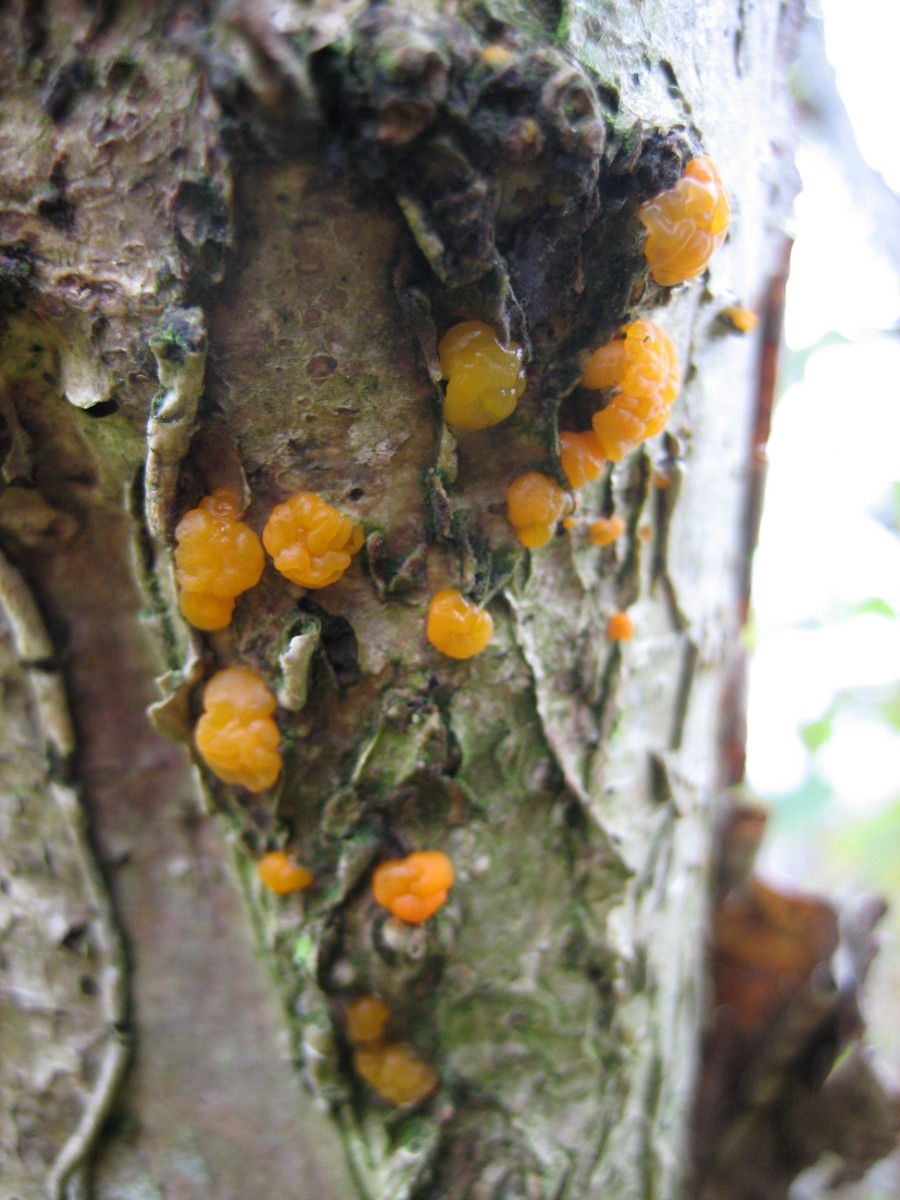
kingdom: Fungi
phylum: Basidiomycota
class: Dacrymycetes
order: Dacrymycetales
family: Dacrymycetaceae
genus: Dacrymyces
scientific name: Dacrymyces lacrymalis
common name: rynket tåresvamp
